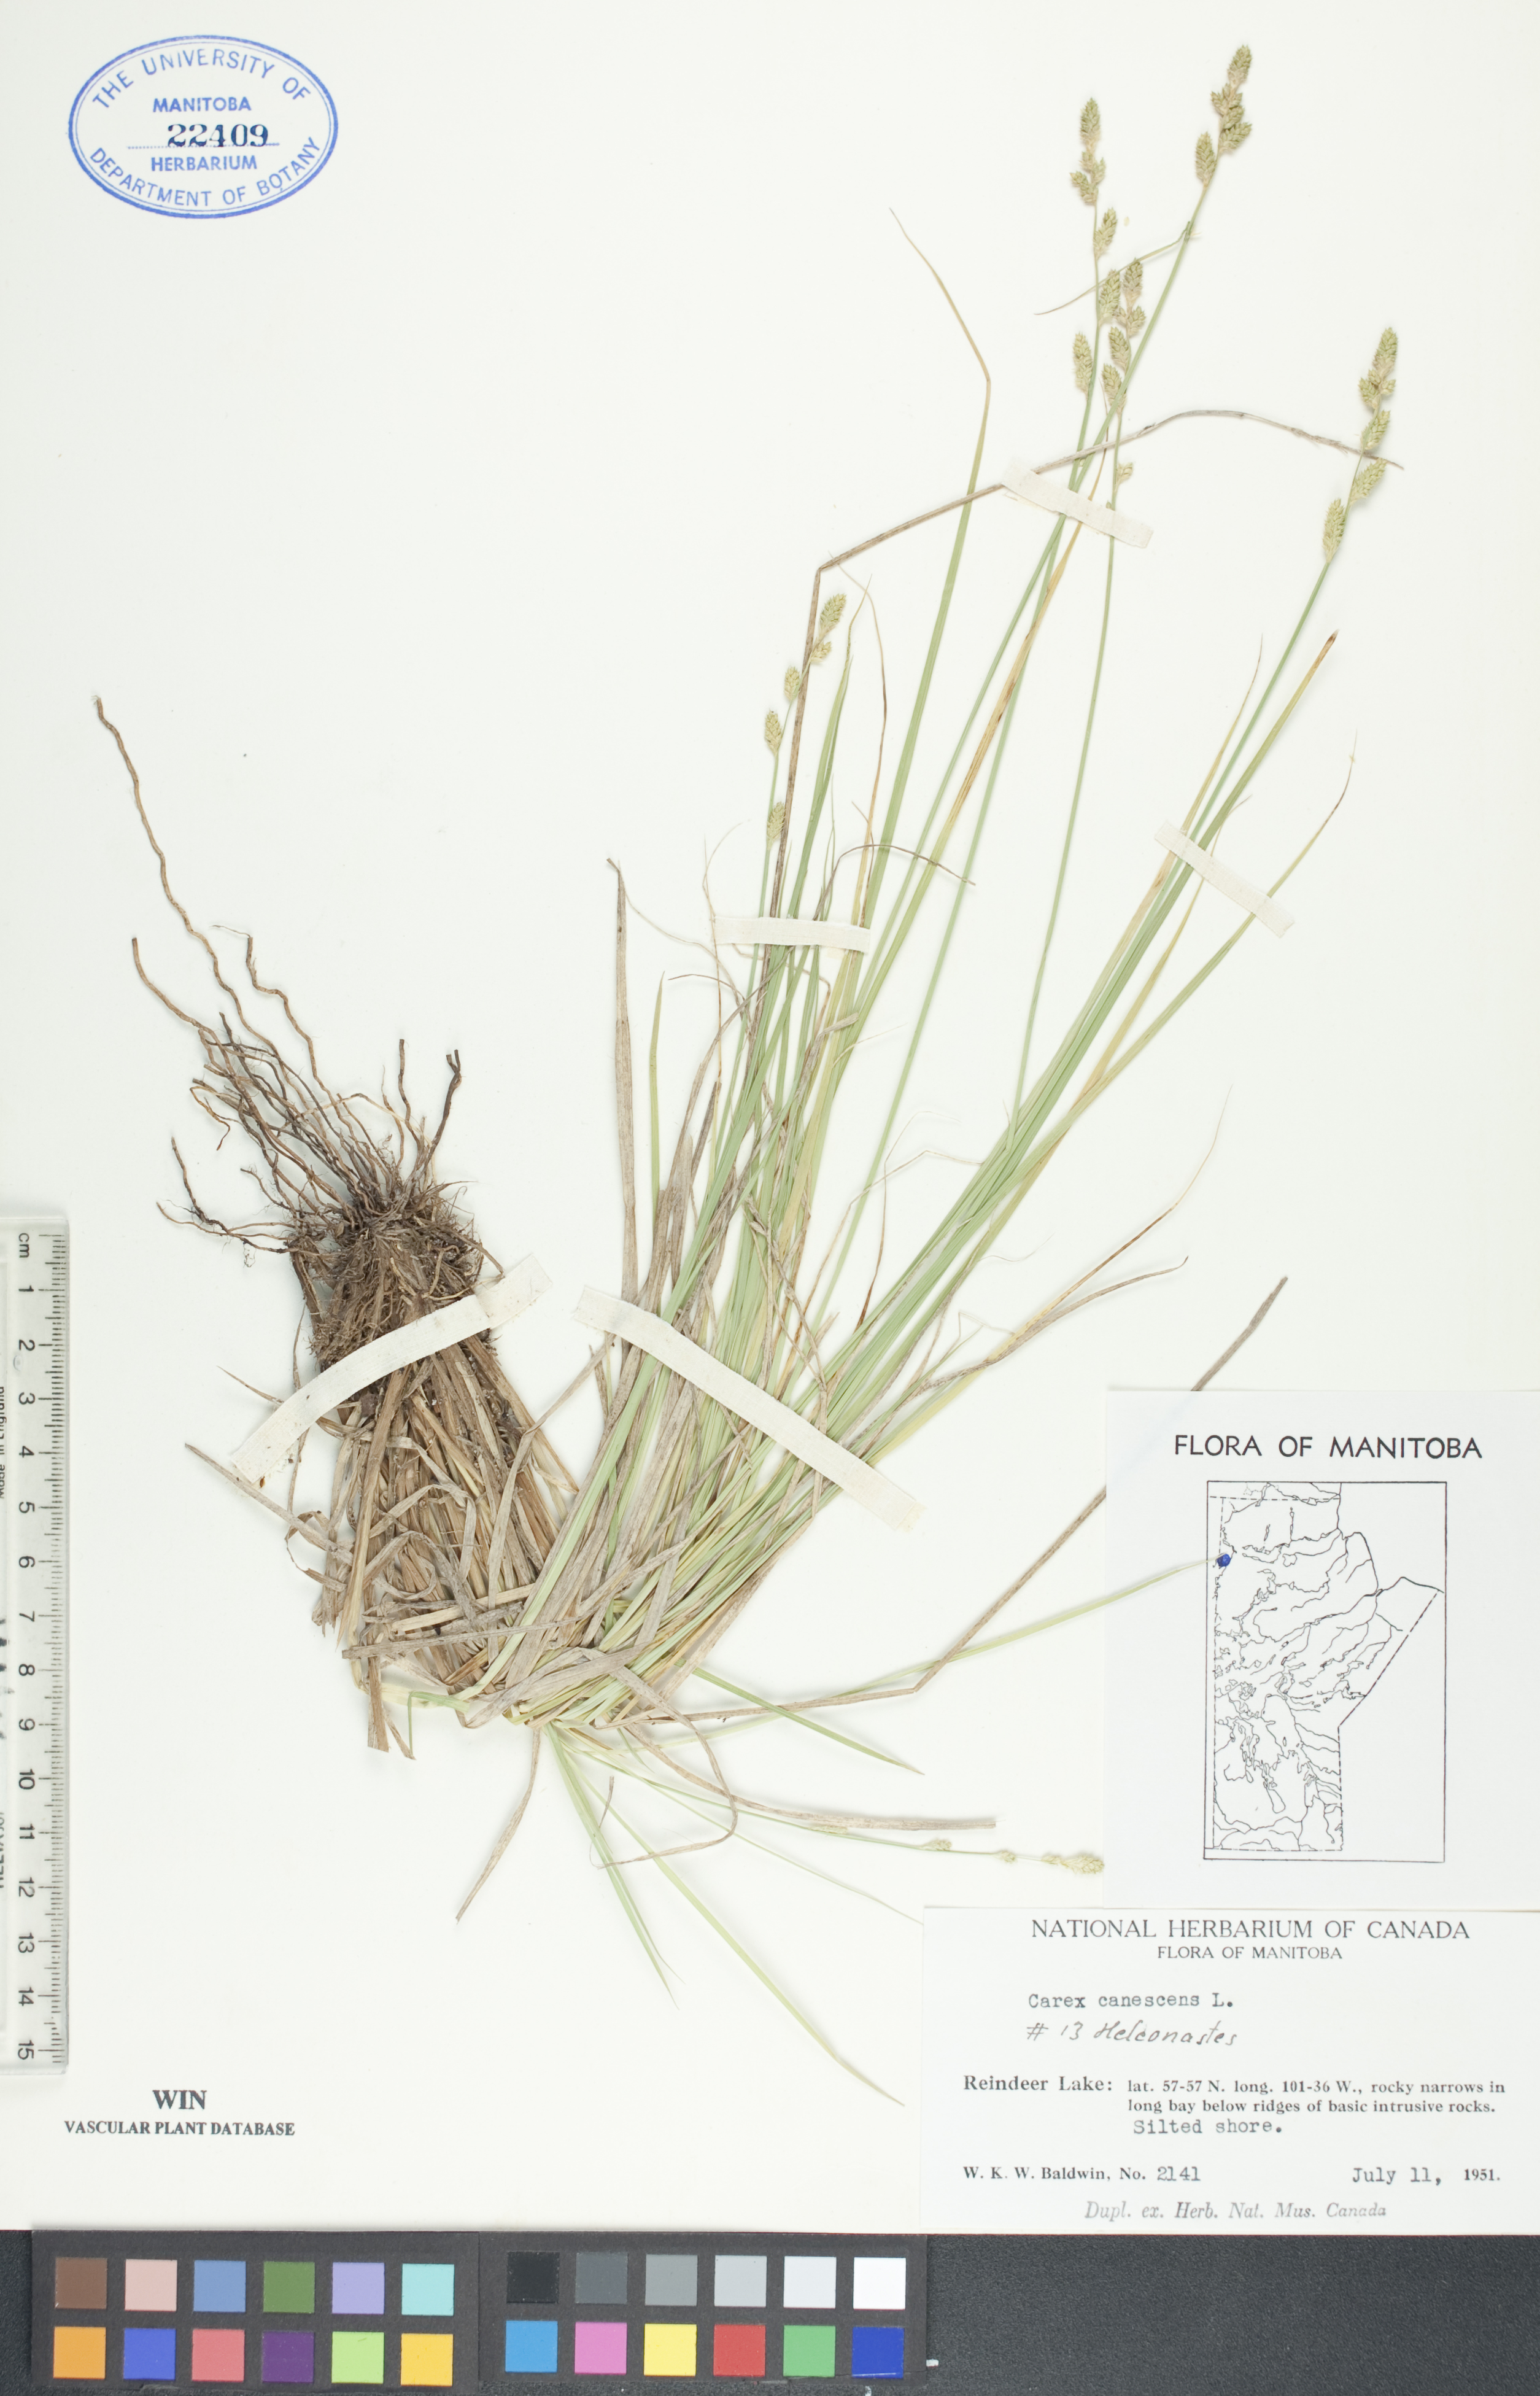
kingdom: Plantae
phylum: Tracheophyta
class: Liliopsida
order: Poales
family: Cyperaceae
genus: Carex
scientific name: Carex canescens
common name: White sedge
